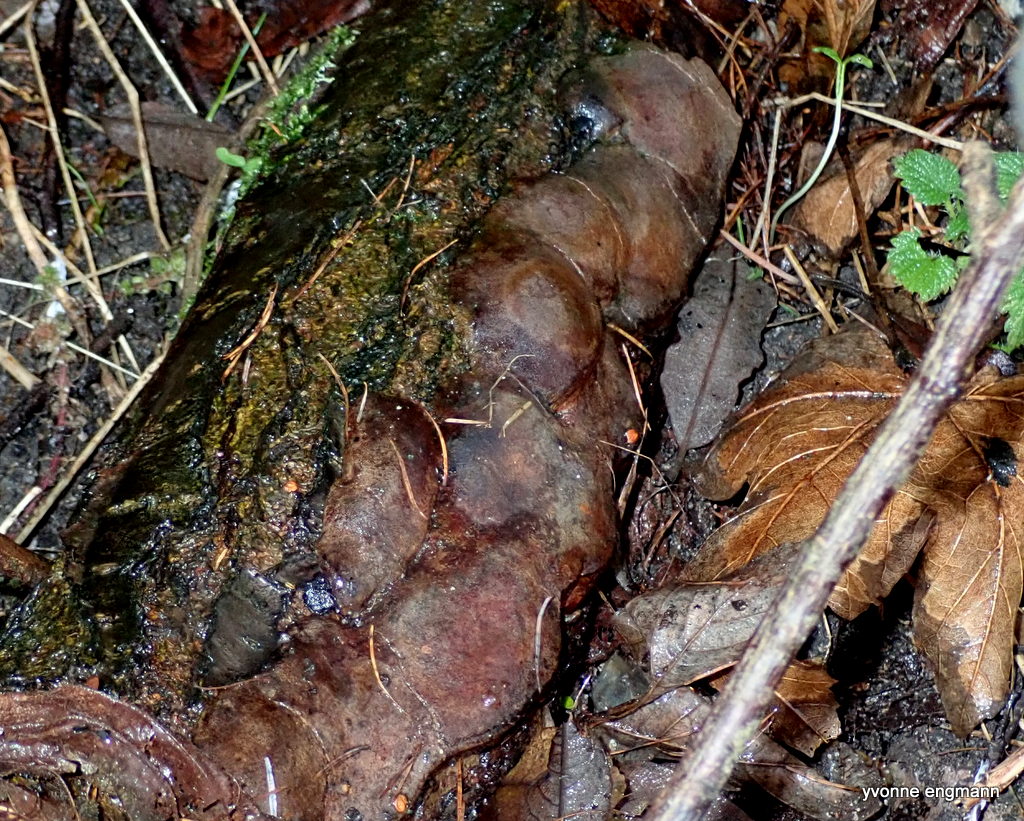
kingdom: Fungi
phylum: Basidiomycota
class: Agaricomycetes
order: Hymenochaetales
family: Hymenochaetaceae
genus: Phellinus
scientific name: Phellinus pomaceus
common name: blomme-ildporesvamp
